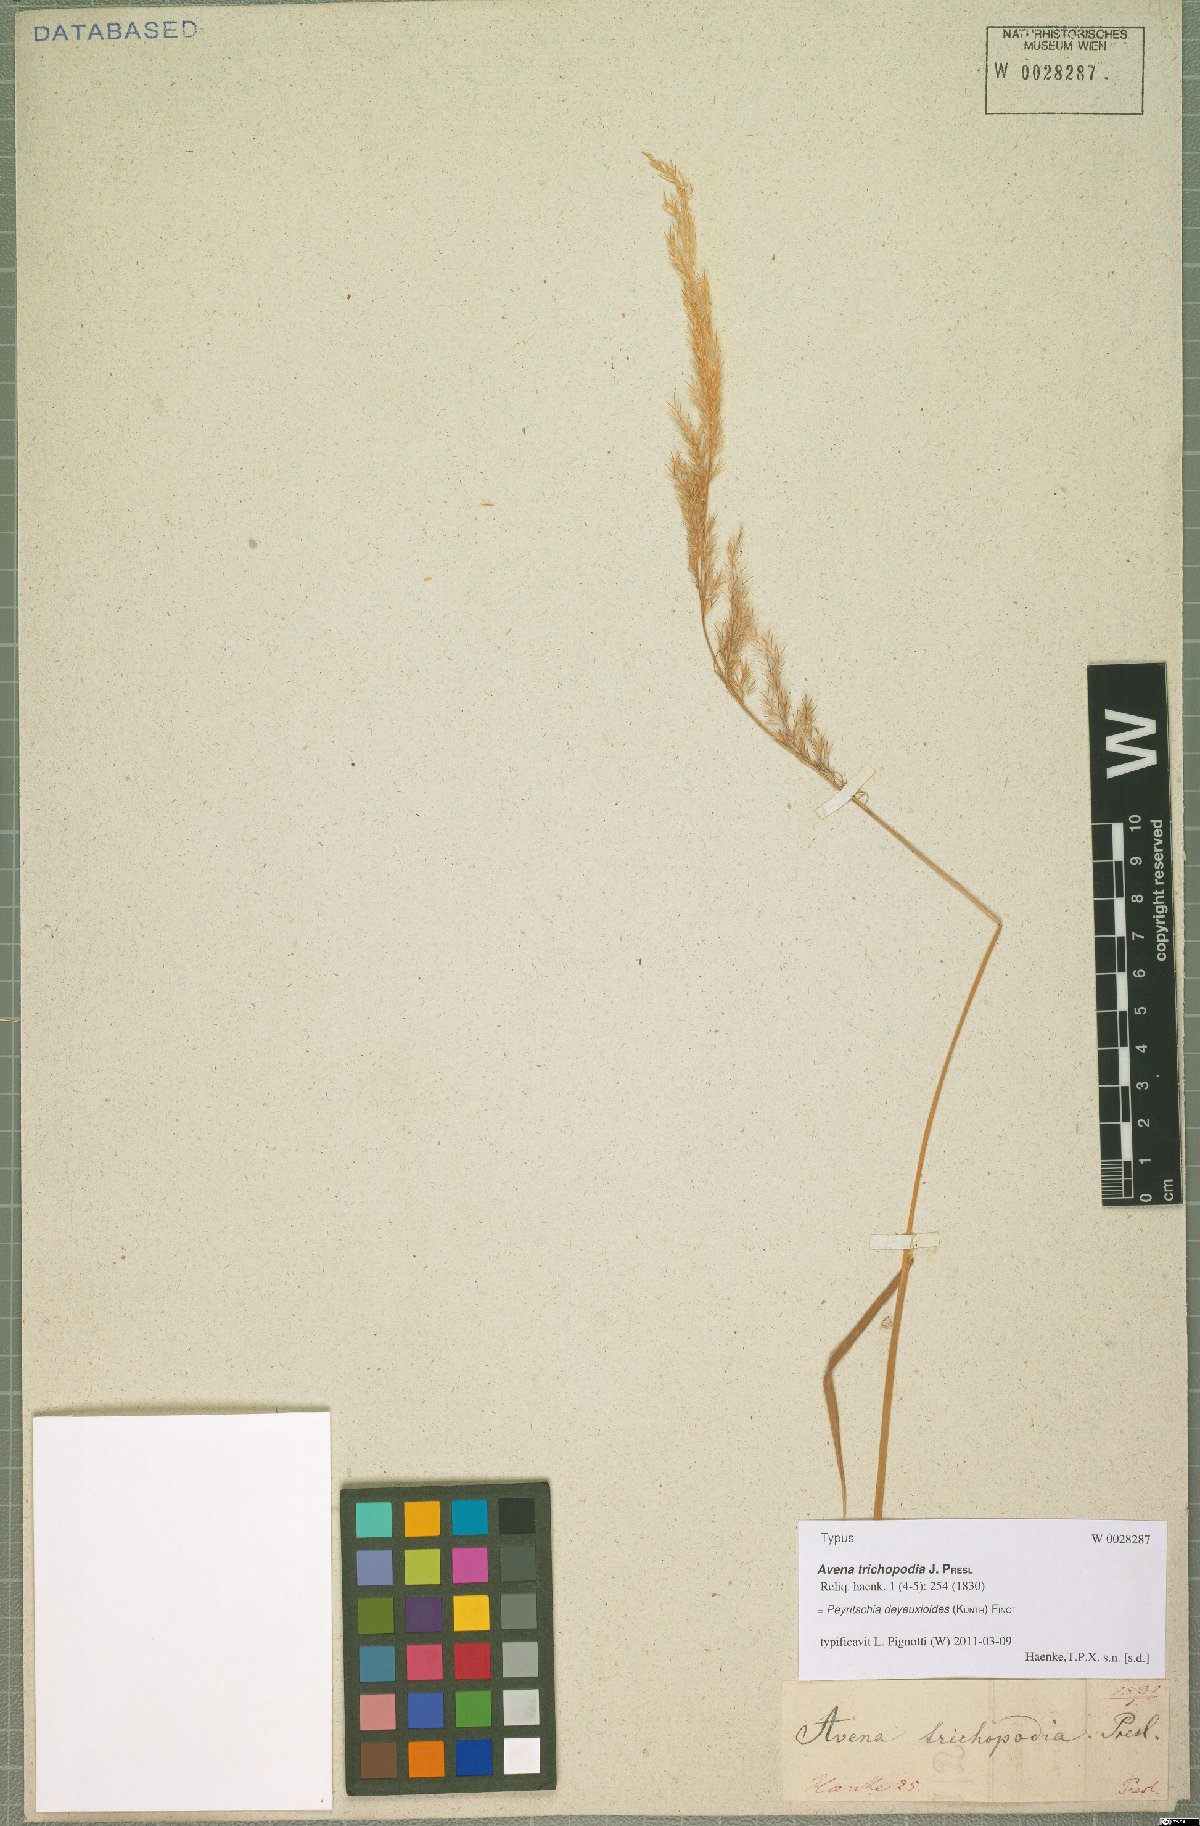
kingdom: Plantae
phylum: Tracheophyta
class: Liliopsida
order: Poales
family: Poaceae
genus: Peyritschia
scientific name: Peyritschia deyeuxioides
